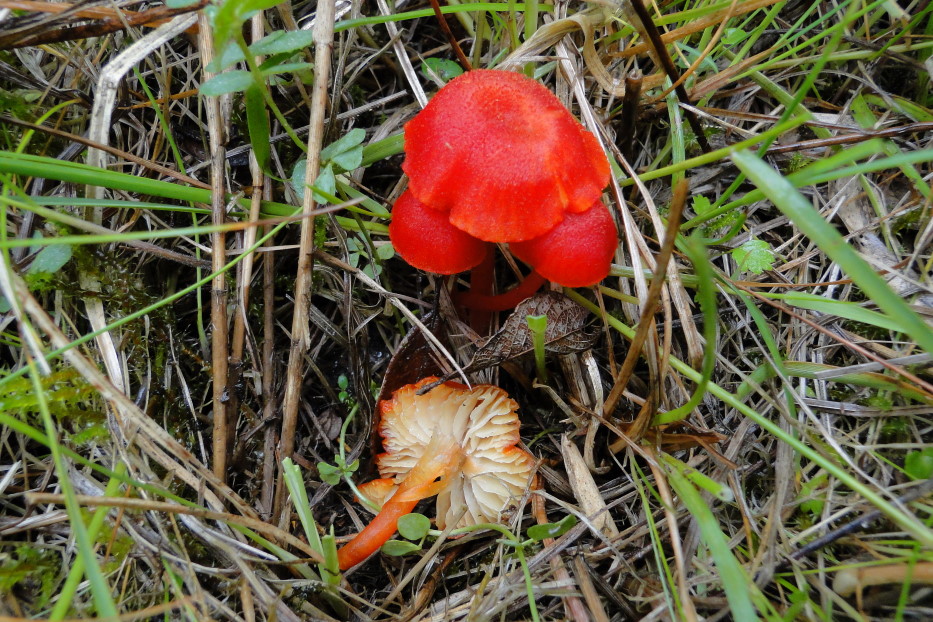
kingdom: Fungi
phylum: Basidiomycota
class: Agaricomycetes
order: Agaricales
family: Hygrophoraceae
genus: Hygrocybe
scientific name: Hygrocybe helobia
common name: hvidløgs-vokshat
